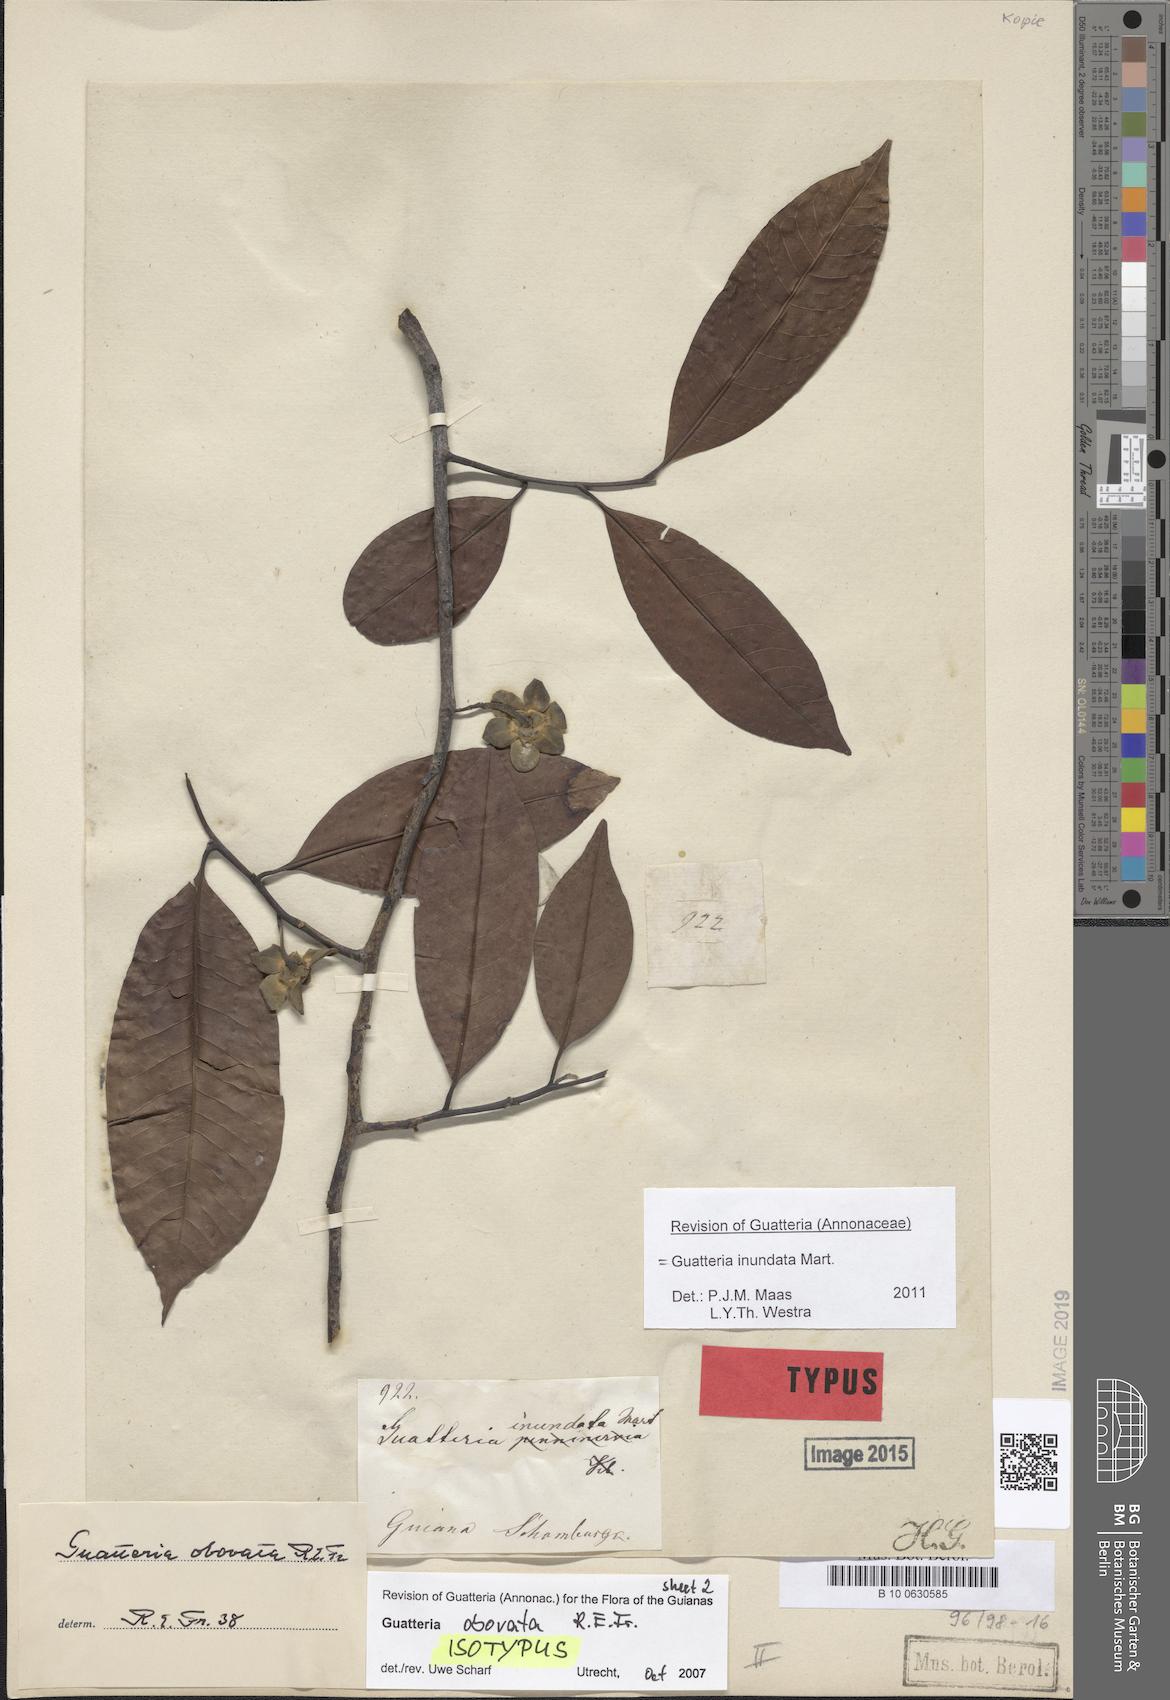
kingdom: Plantae
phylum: Tracheophyta
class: Magnoliopsida
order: Magnoliales
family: Annonaceae
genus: Guatteria
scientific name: Guatteria inundata
